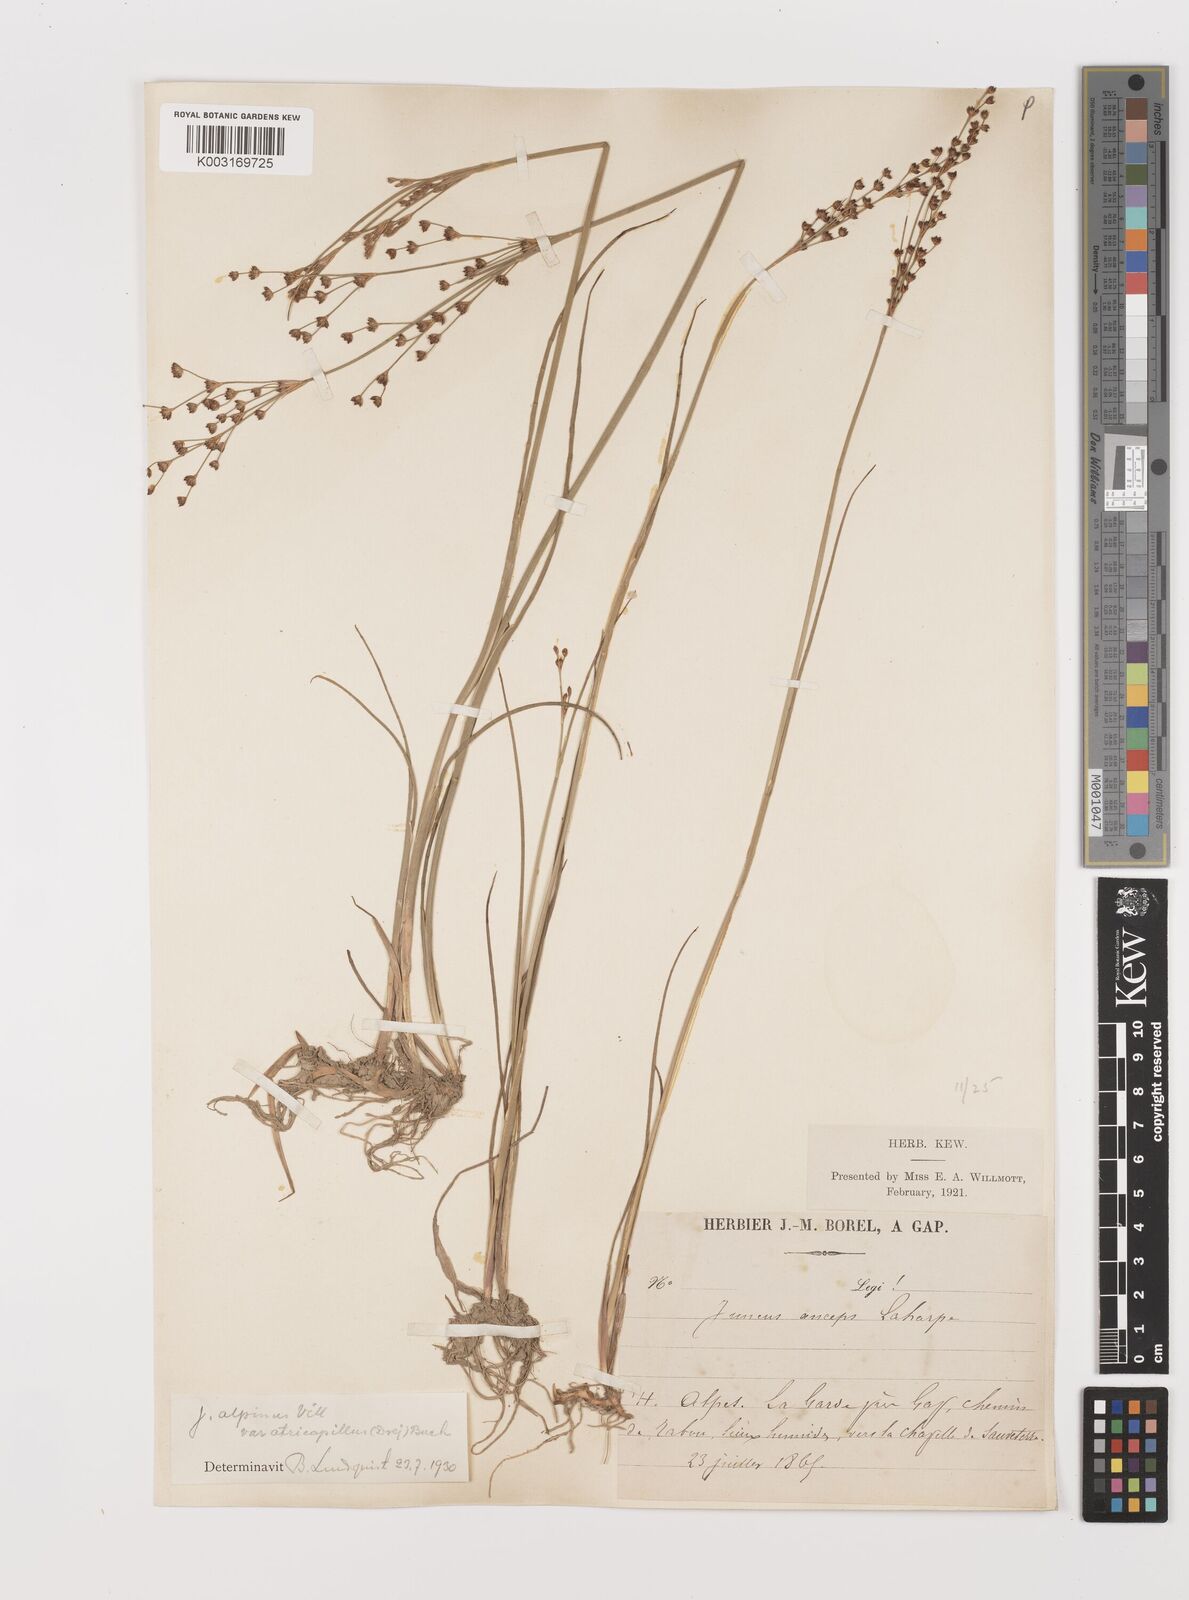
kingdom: Plantae
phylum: Tracheophyta
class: Liliopsida
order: Poales
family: Juncaceae
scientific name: Juncaceae
